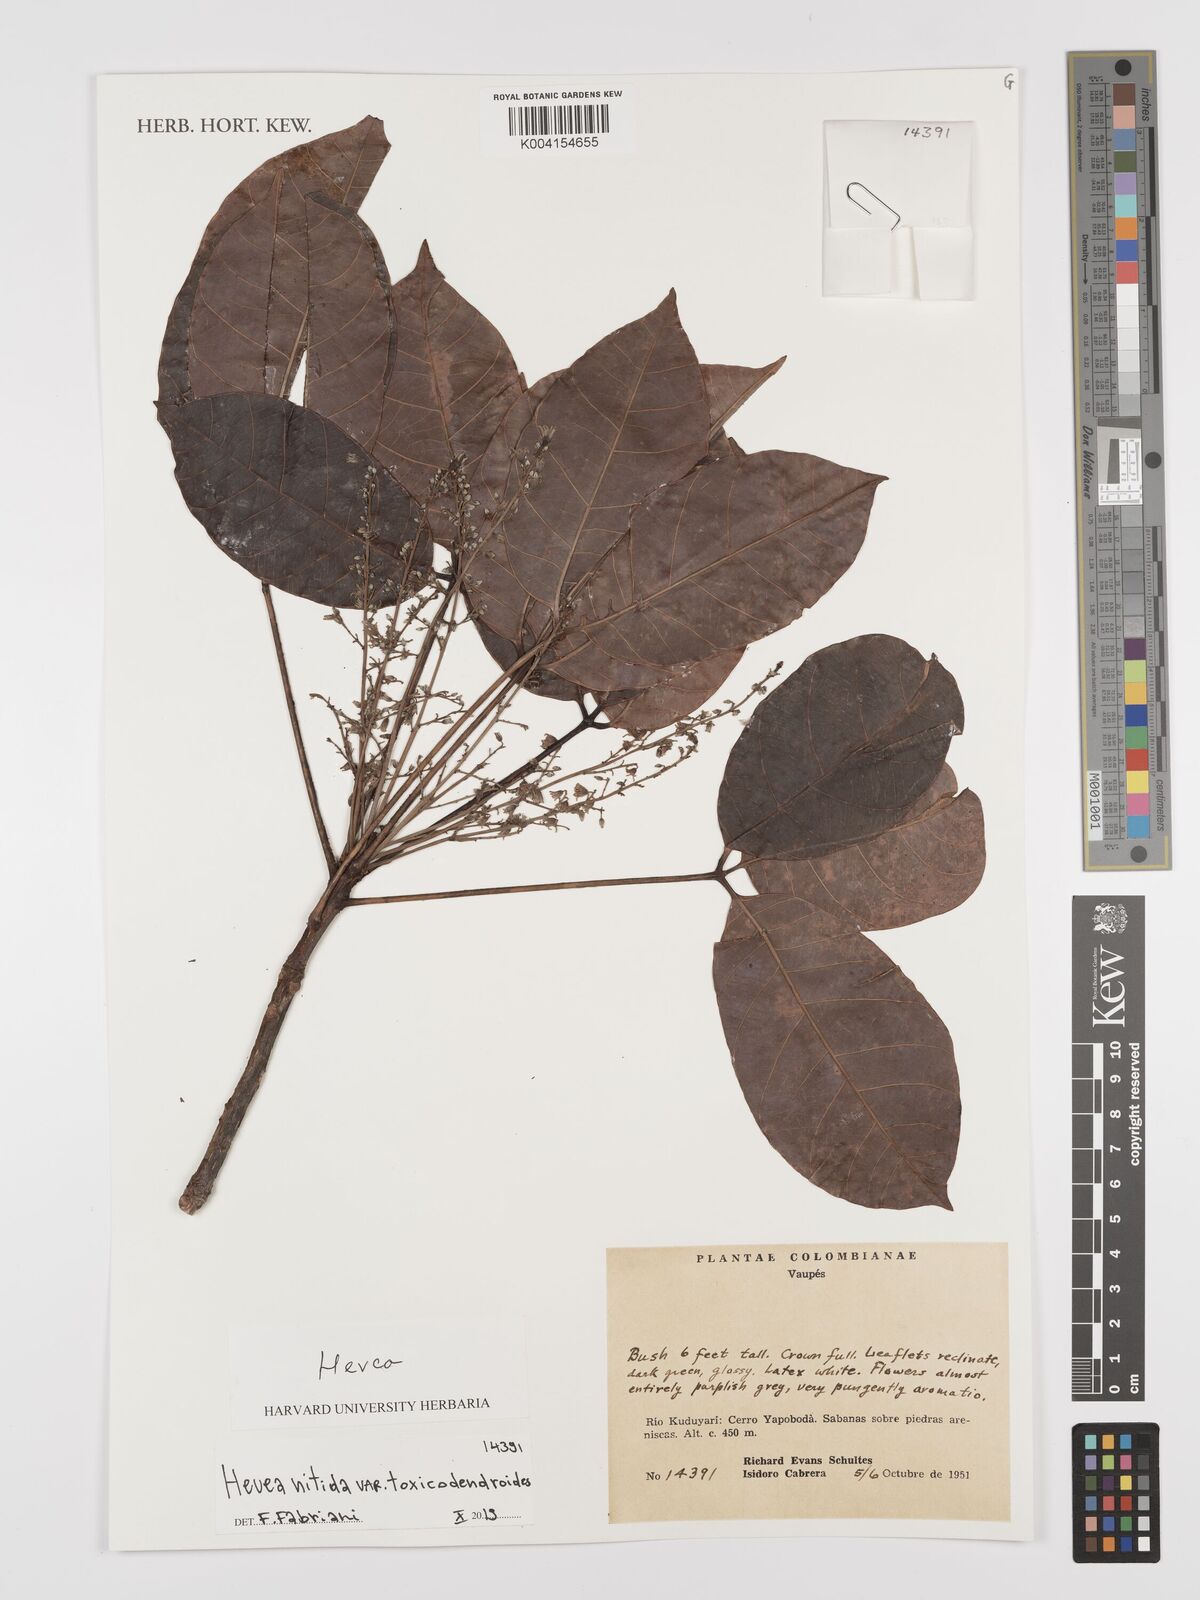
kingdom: Plantae
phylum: Tracheophyta
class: Magnoliopsida
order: Malpighiales
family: Euphorbiaceae
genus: Hevea
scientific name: Hevea nitida
